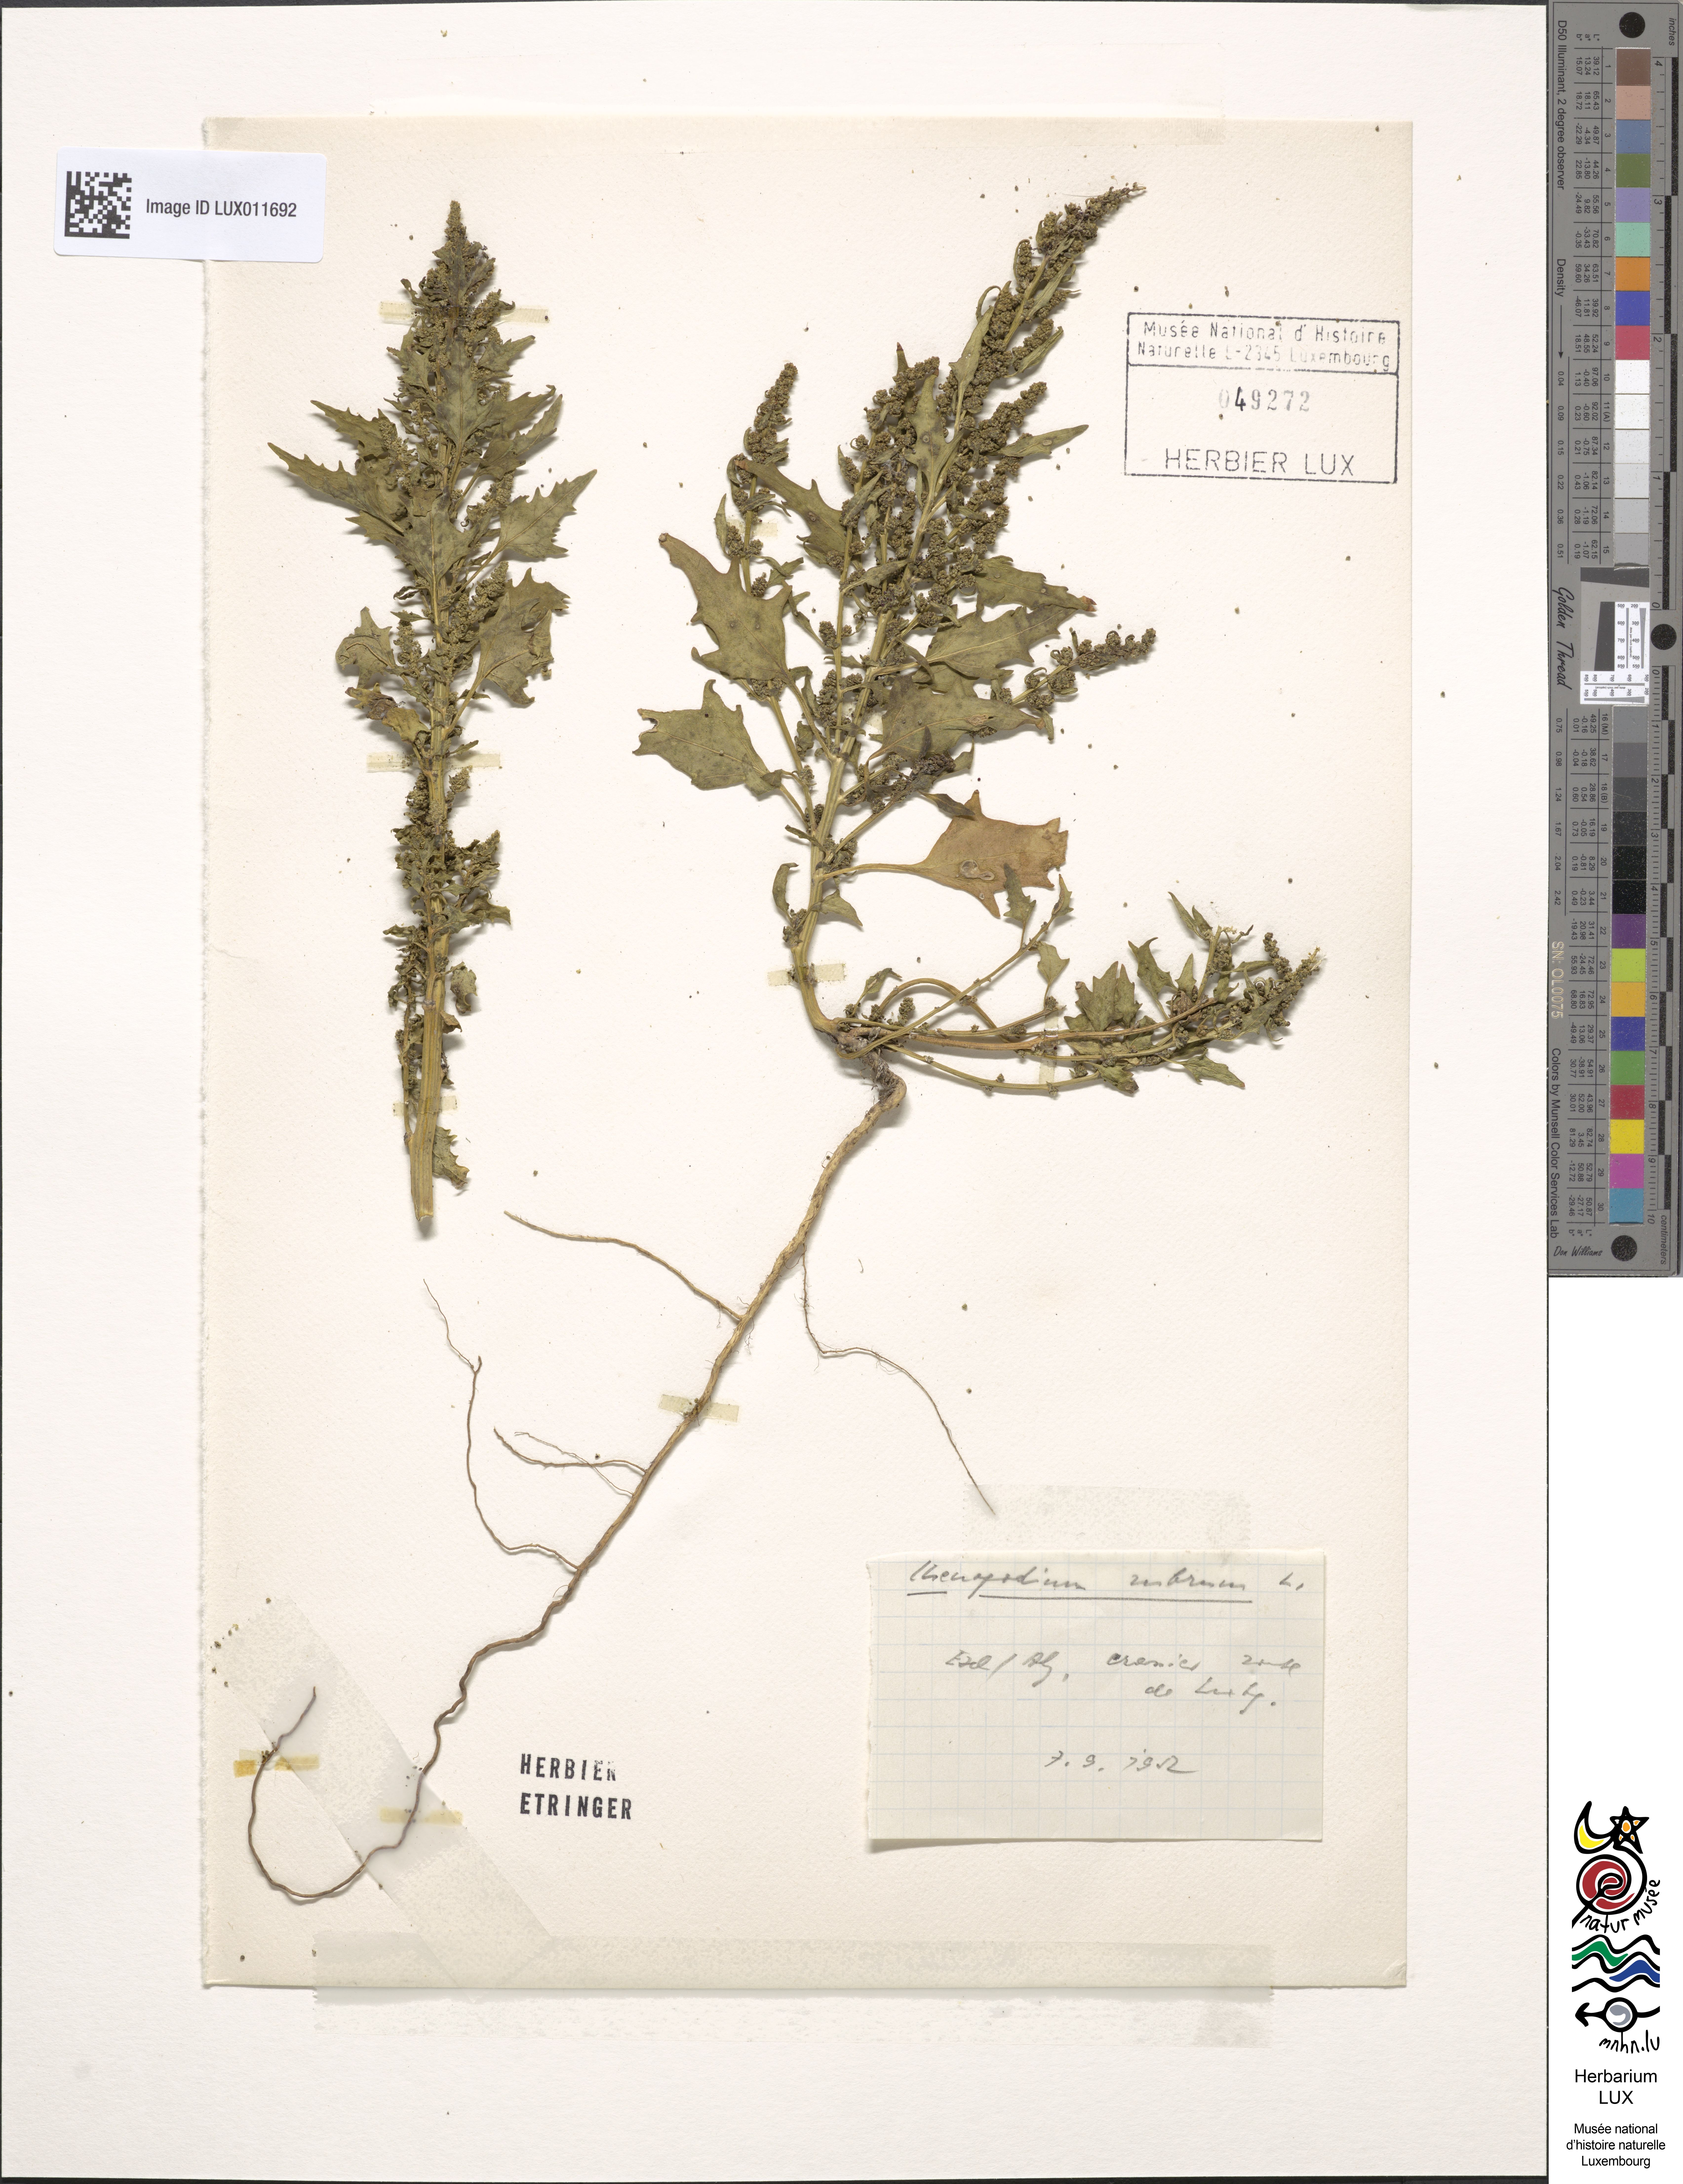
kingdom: Plantae
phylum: Tracheophyta
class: Magnoliopsida
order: Caryophyllales
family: Amaranthaceae
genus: Oxybasis
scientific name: Oxybasis rubra
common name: Red goosefoot
